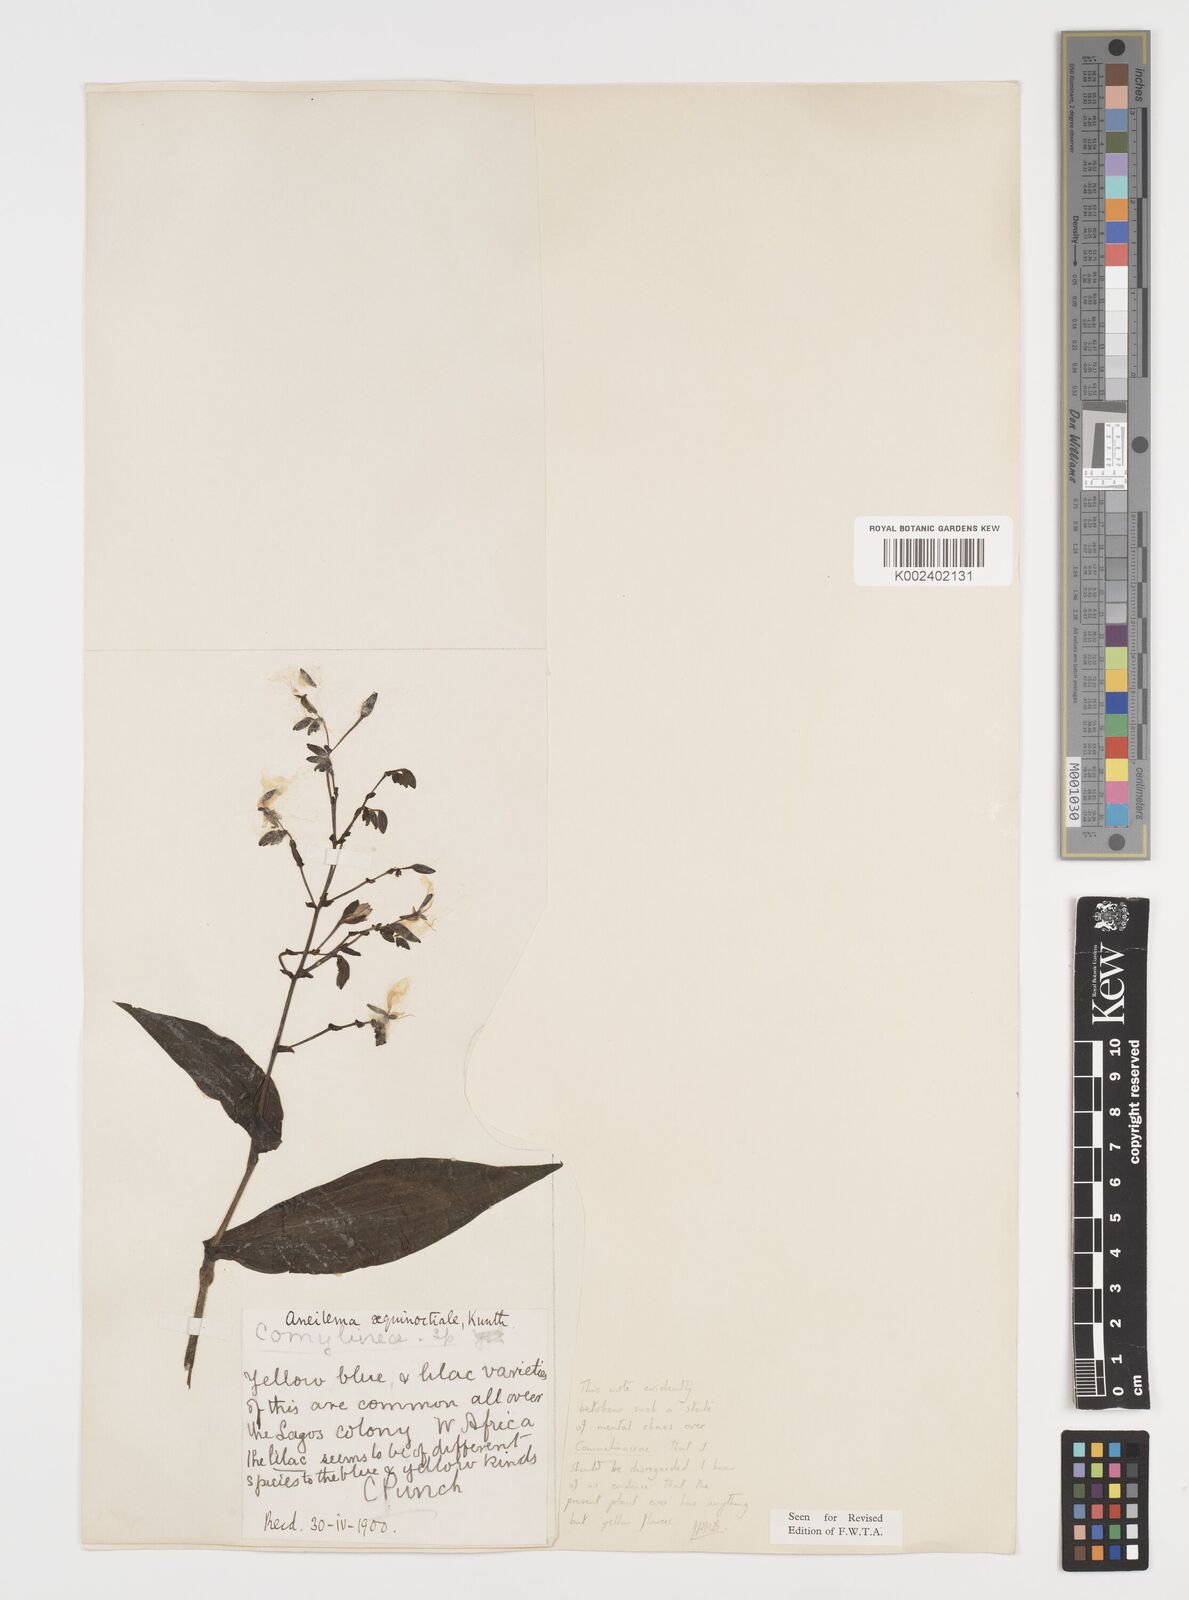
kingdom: Plantae
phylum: Tracheophyta
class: Liliopsida
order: Commelinales
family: Commelinaceae
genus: Aneilema
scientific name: Aneilema aequinoctiale
